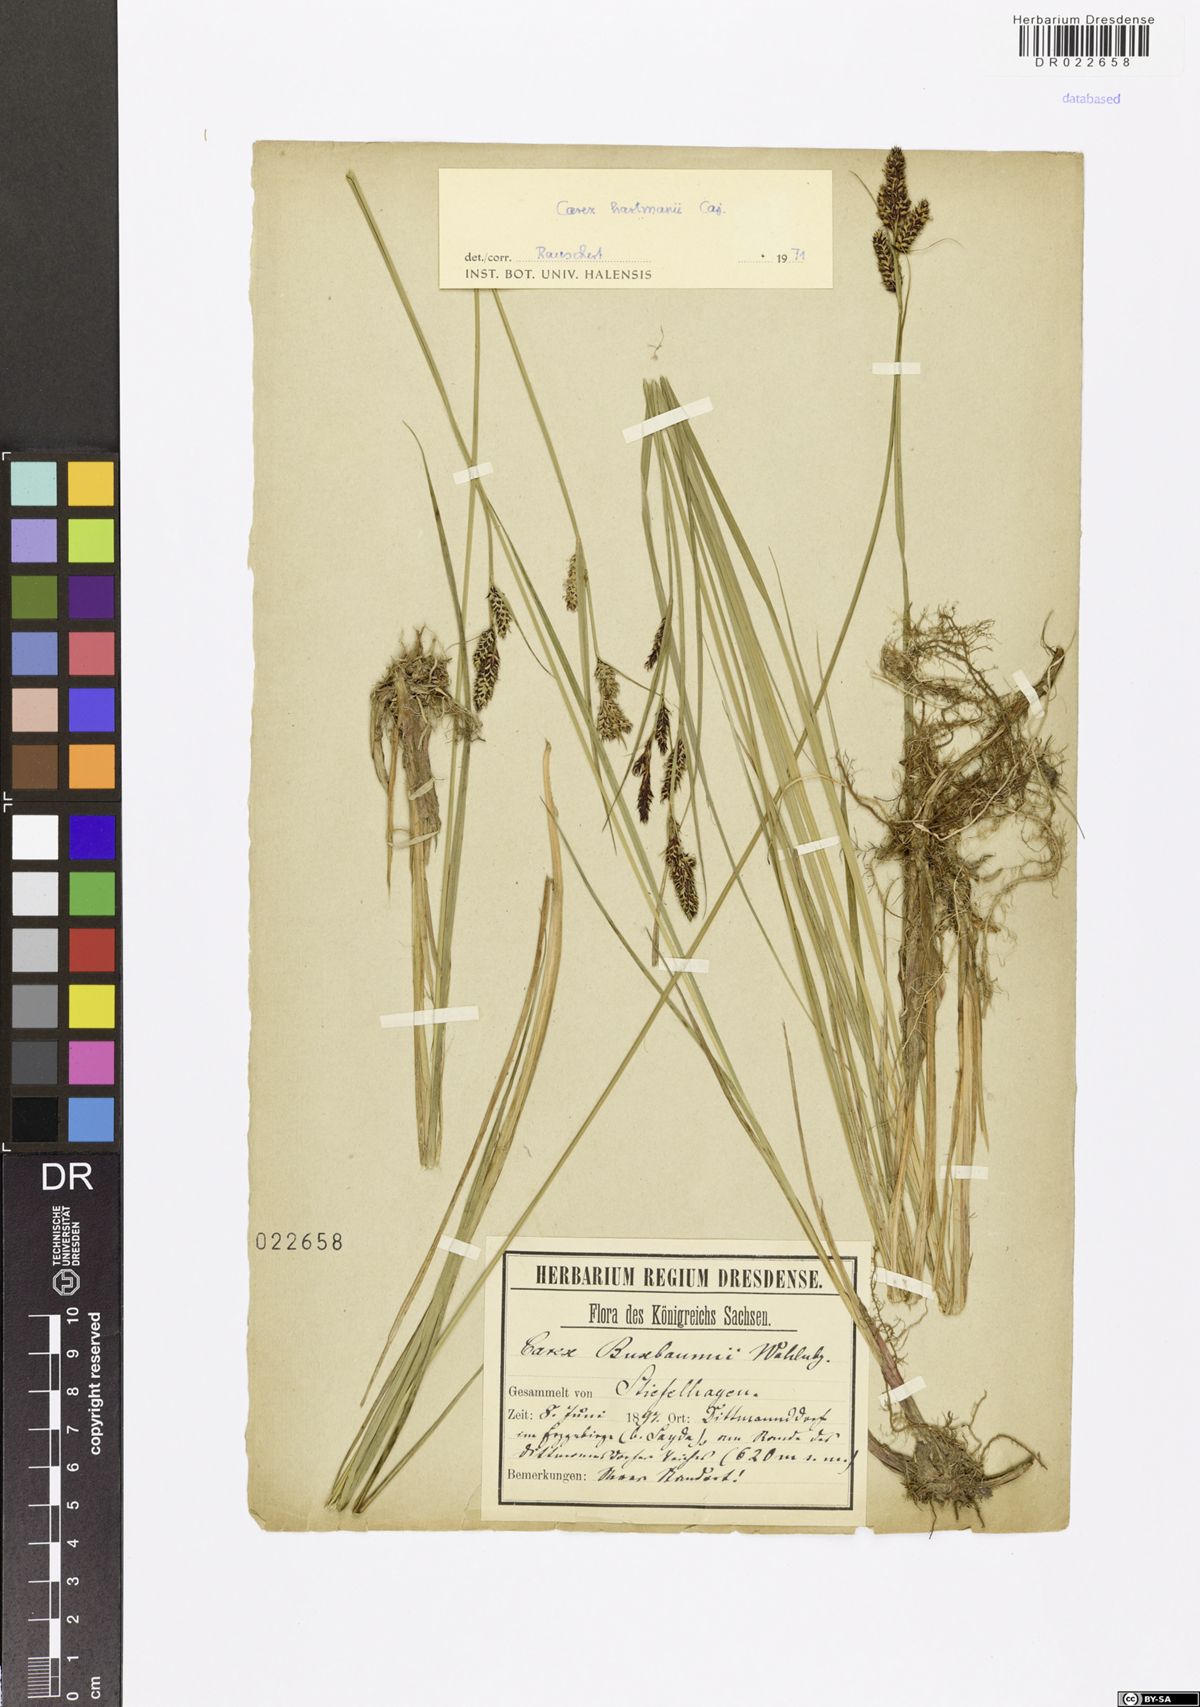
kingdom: Plantae
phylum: Tracheophyta
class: Liliopsida
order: Poales
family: Cyperaceae
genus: Carex
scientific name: Carex hartmaniorum
